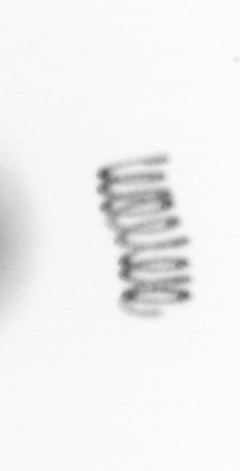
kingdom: Chromista
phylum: Ochrophyta
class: Bacillariophyceae
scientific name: Bacillariophyceae
